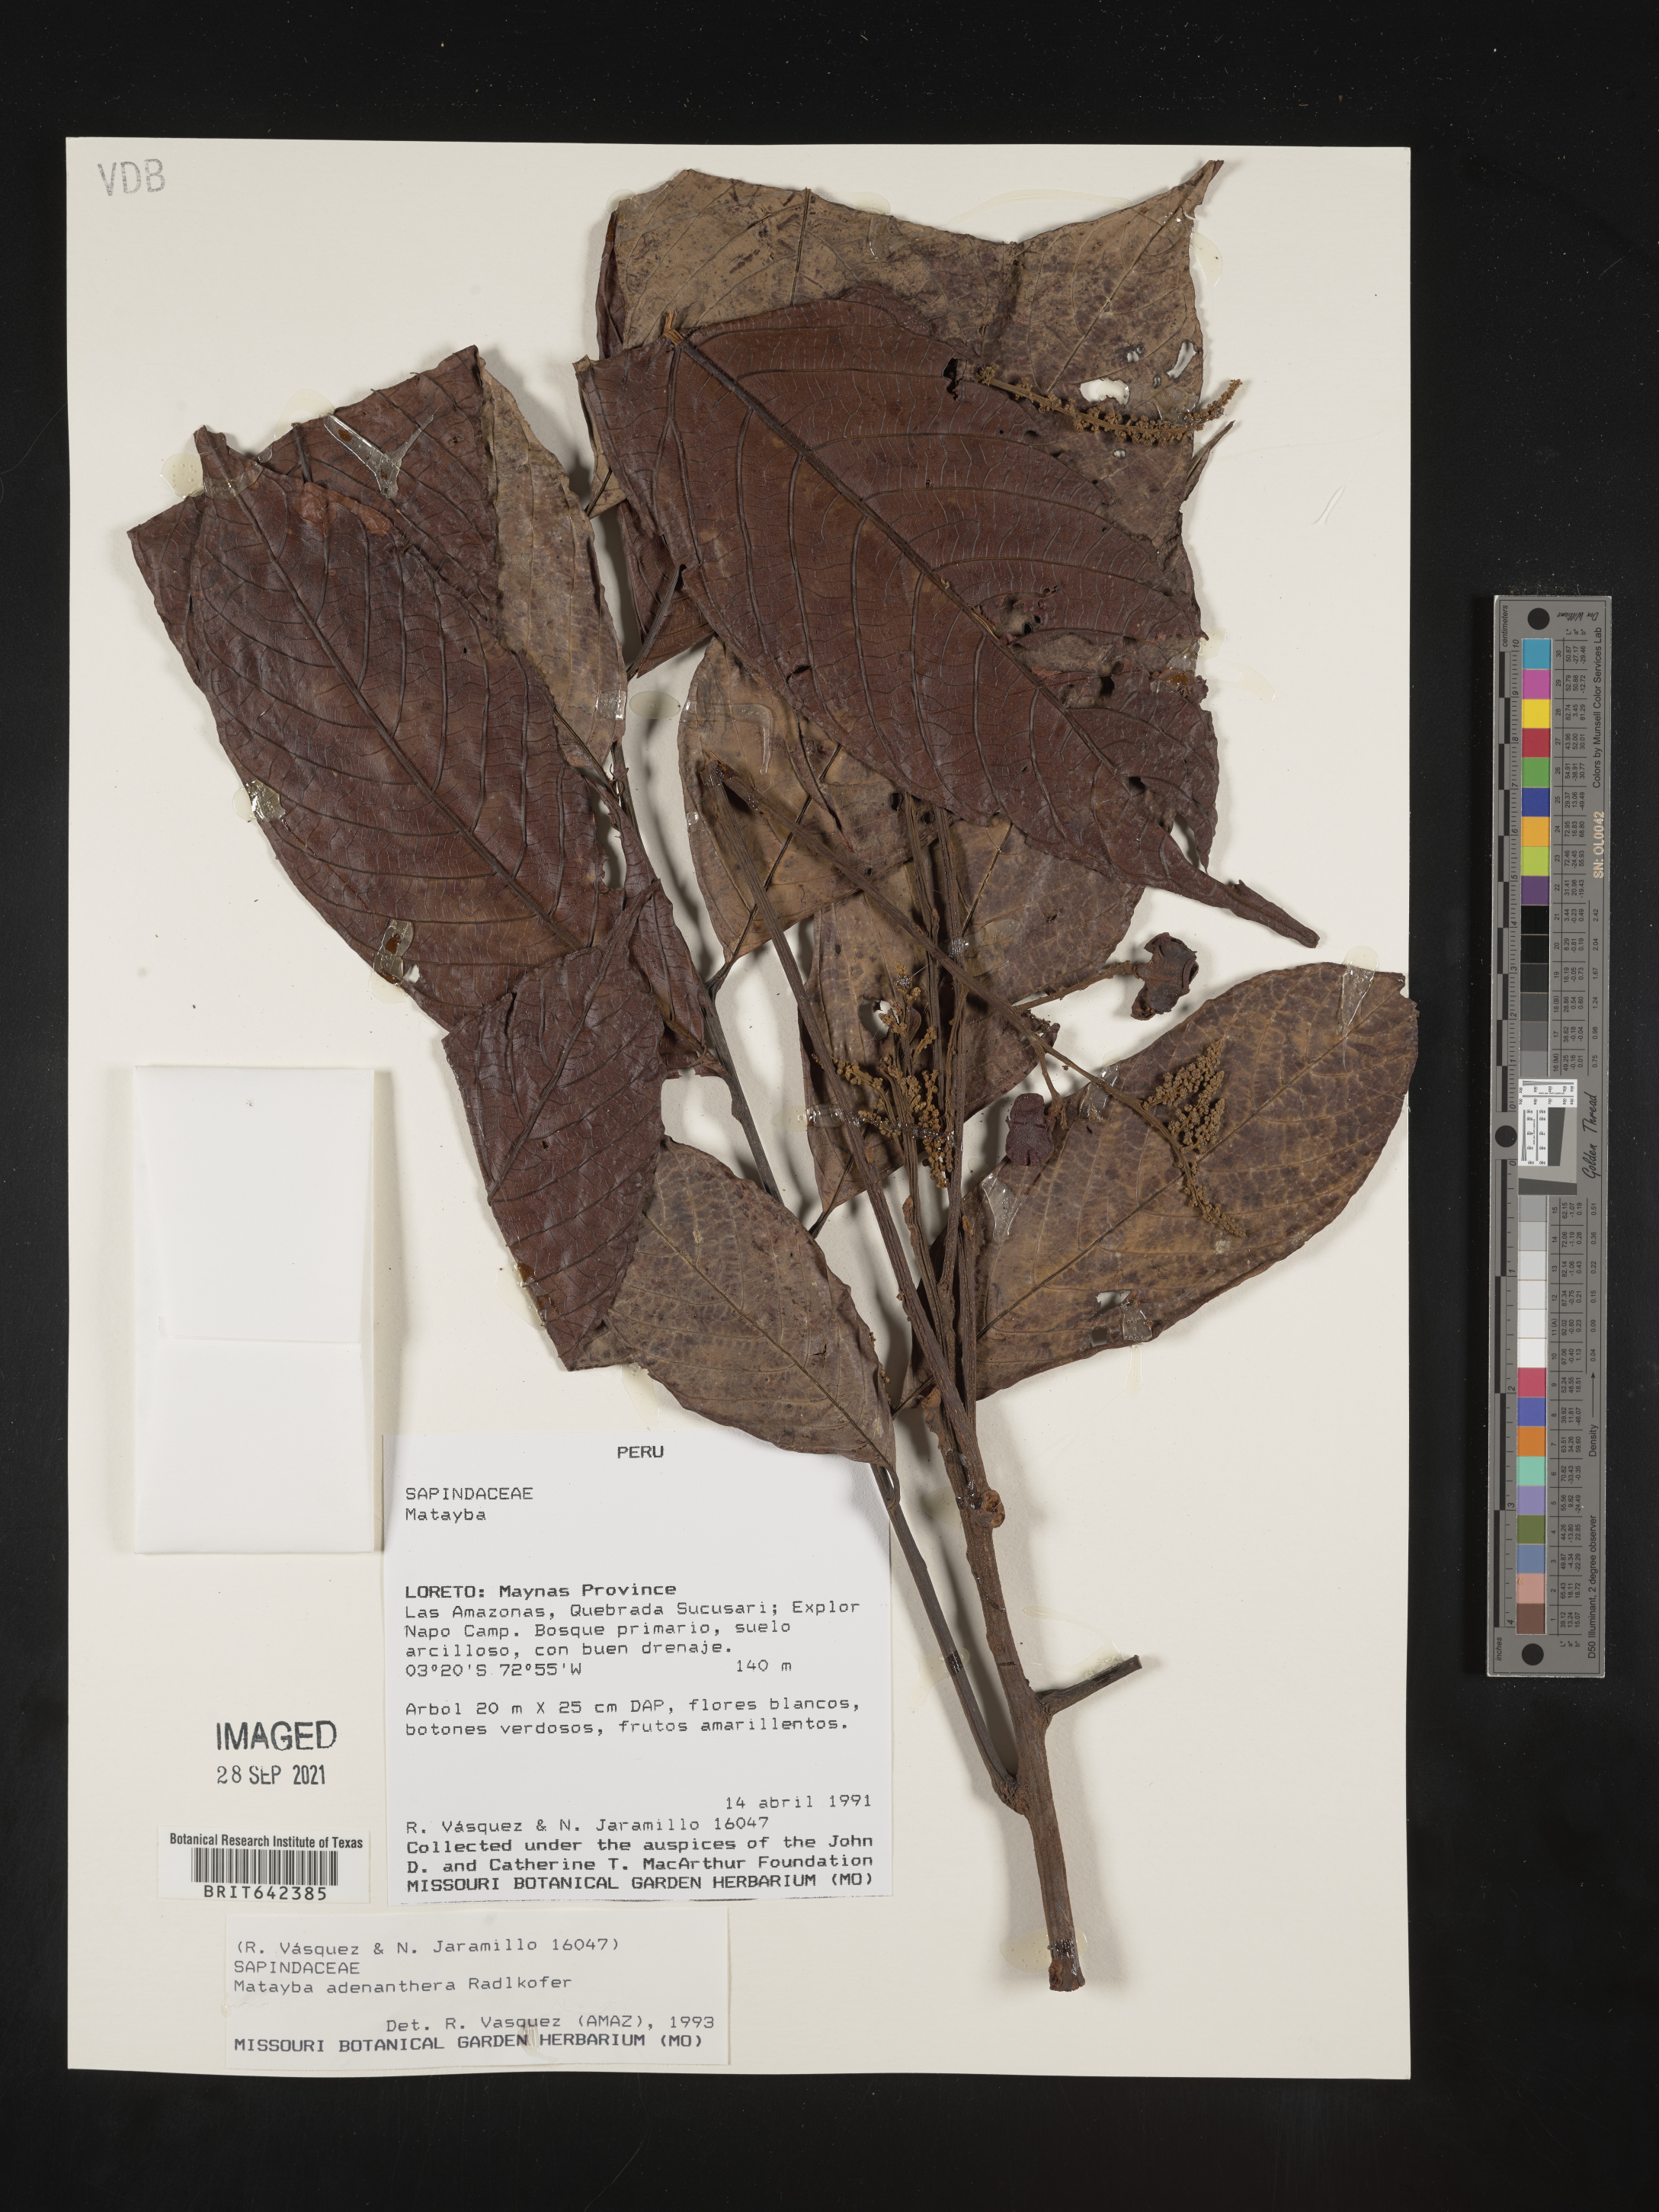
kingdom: Plantae
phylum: Tracheophyta
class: Magnoliopsida
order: Sapindales
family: Sapindaceae
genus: Matayba
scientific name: Matayba
